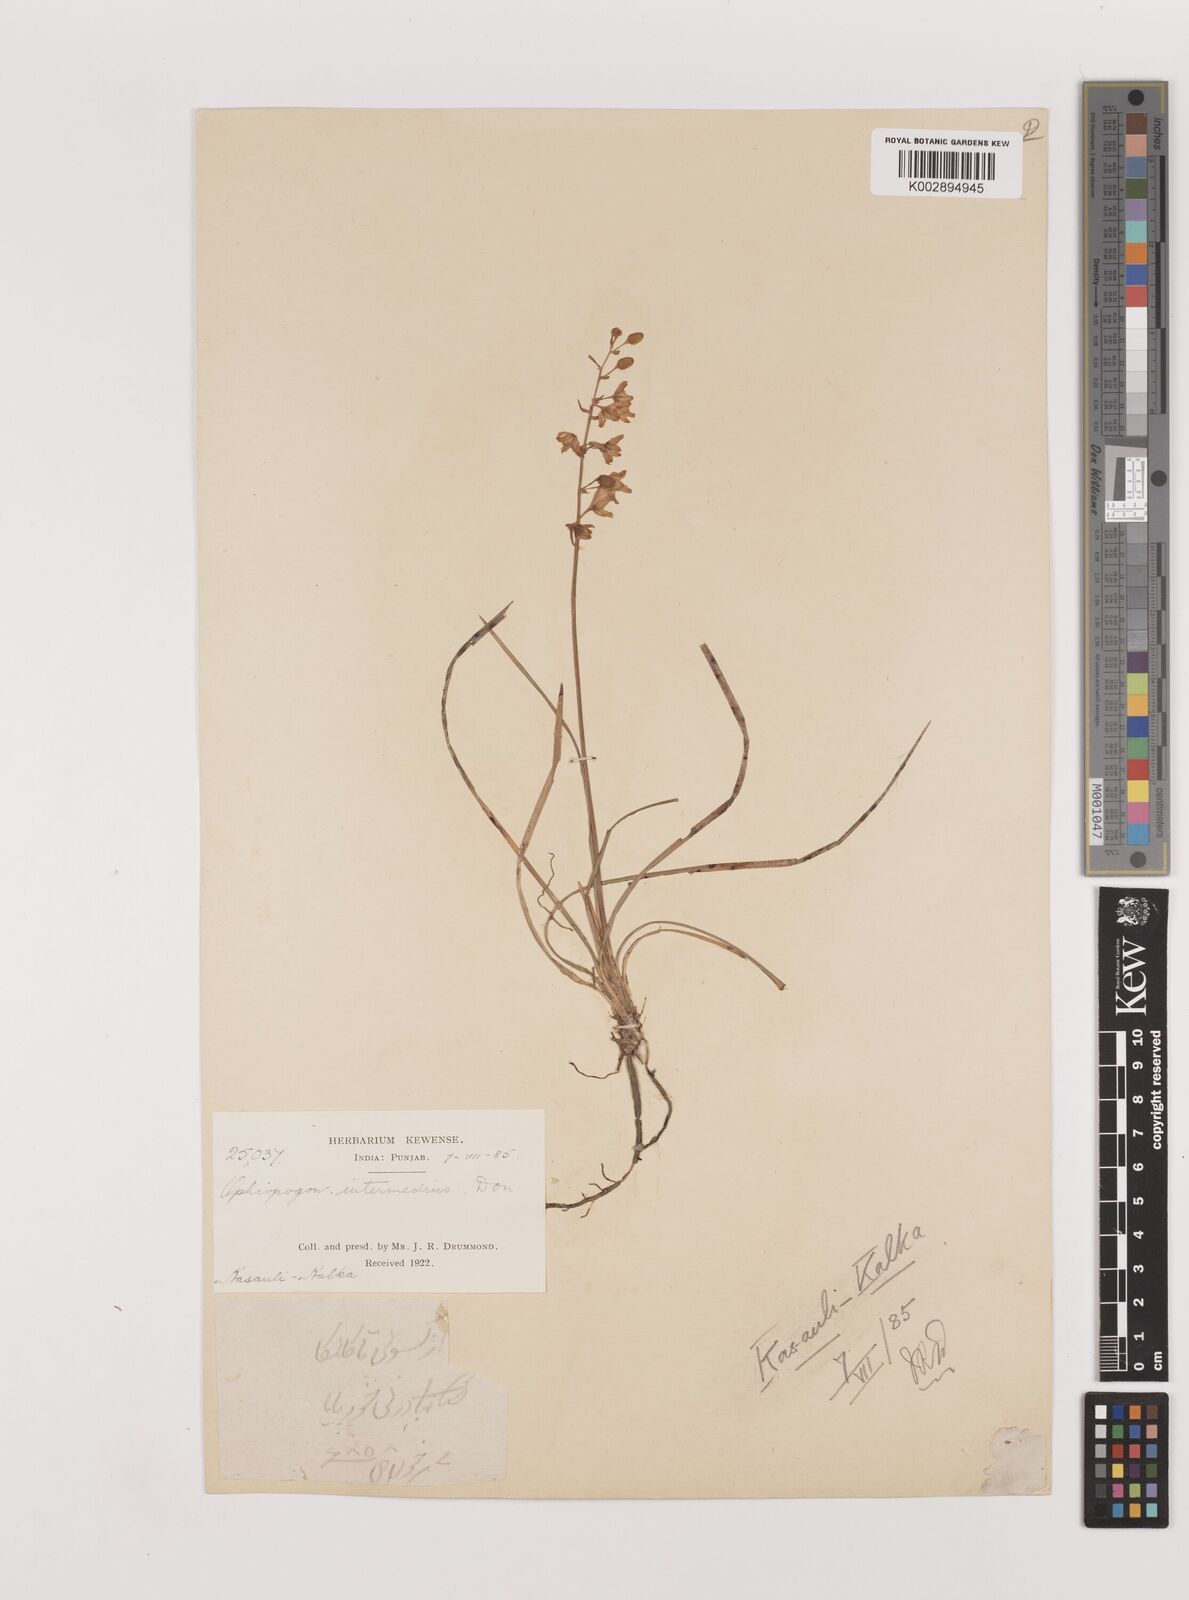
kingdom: Plantae
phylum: Tracheophyta
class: Liliopsida
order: Asparagales
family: Asparagaceae
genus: Ophiopogon
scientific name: Ophiopogon intermedius
